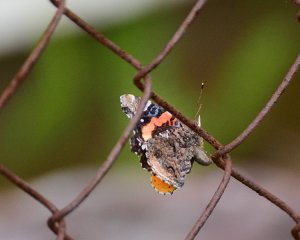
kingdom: Animalia
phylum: Arthropoda
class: Insecta
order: Lepidoptera
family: Nymphalidae
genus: Vanessa
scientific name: Vanessa atalanta
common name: Red Admiral
